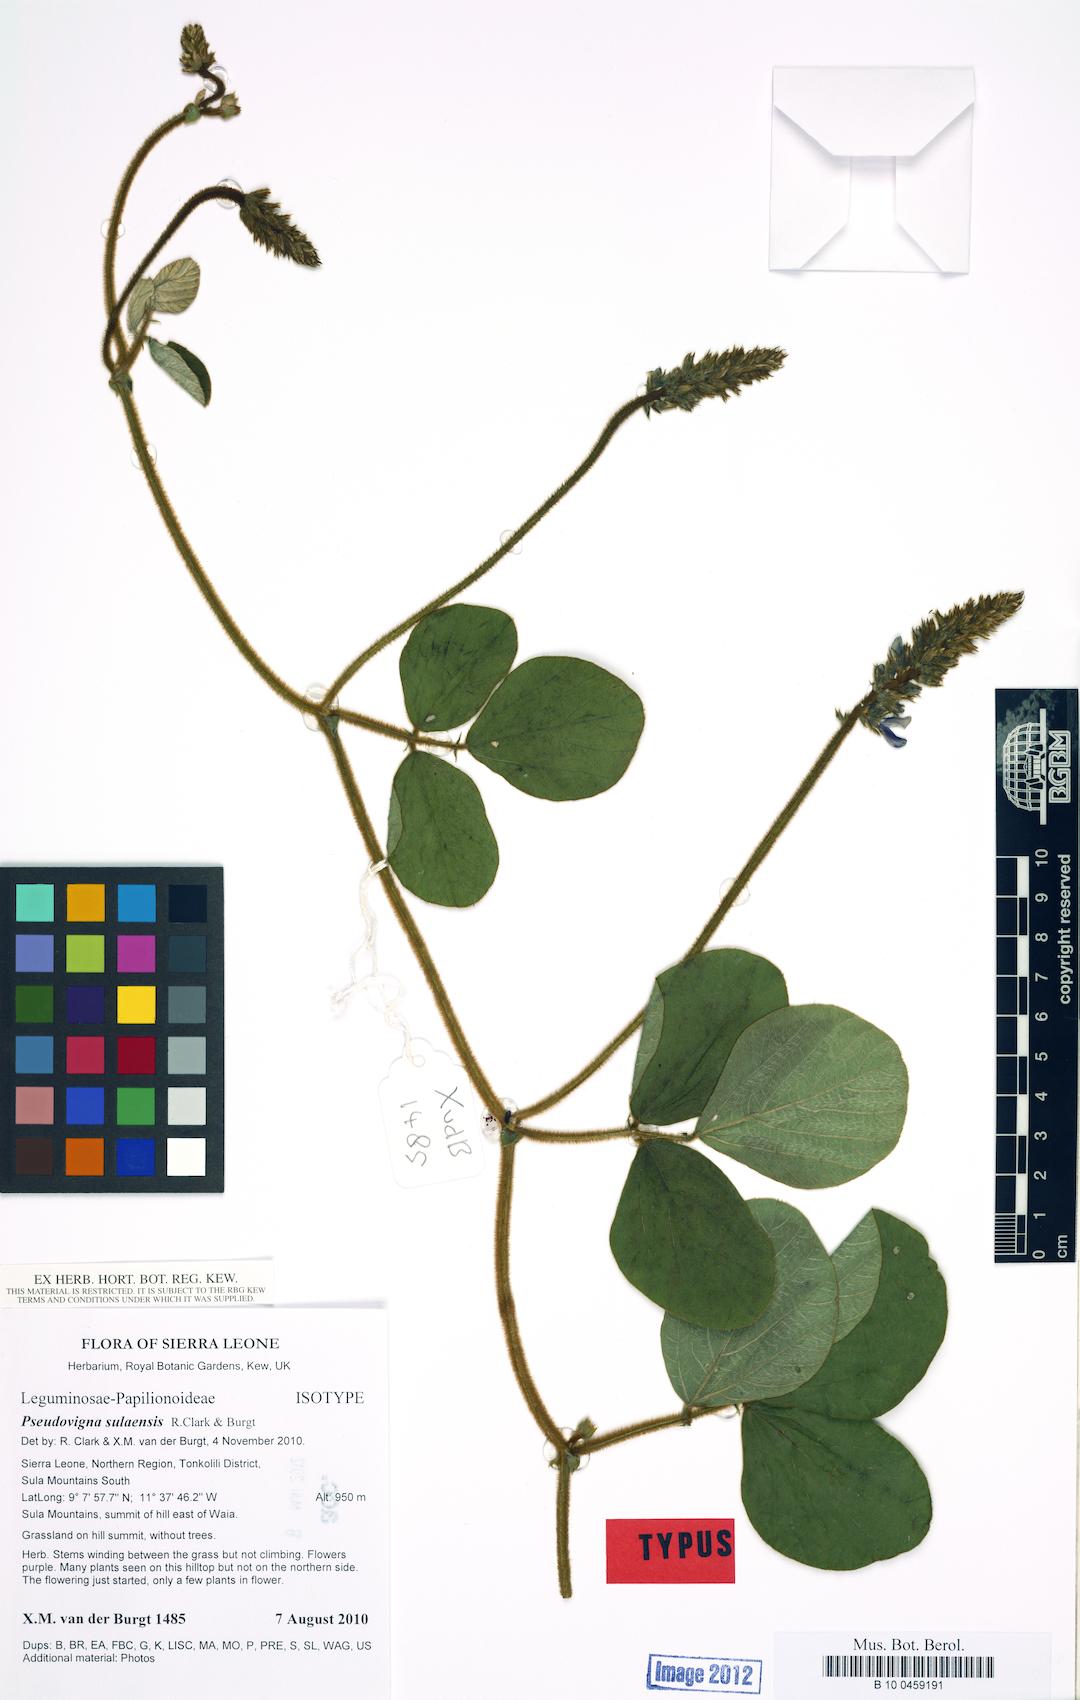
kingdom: Plantae
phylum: Tracheophyta
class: Magnoliopsida
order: Fabales
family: Fabaceae
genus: Pseudovigna
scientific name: Pseudovigna sulaensis
